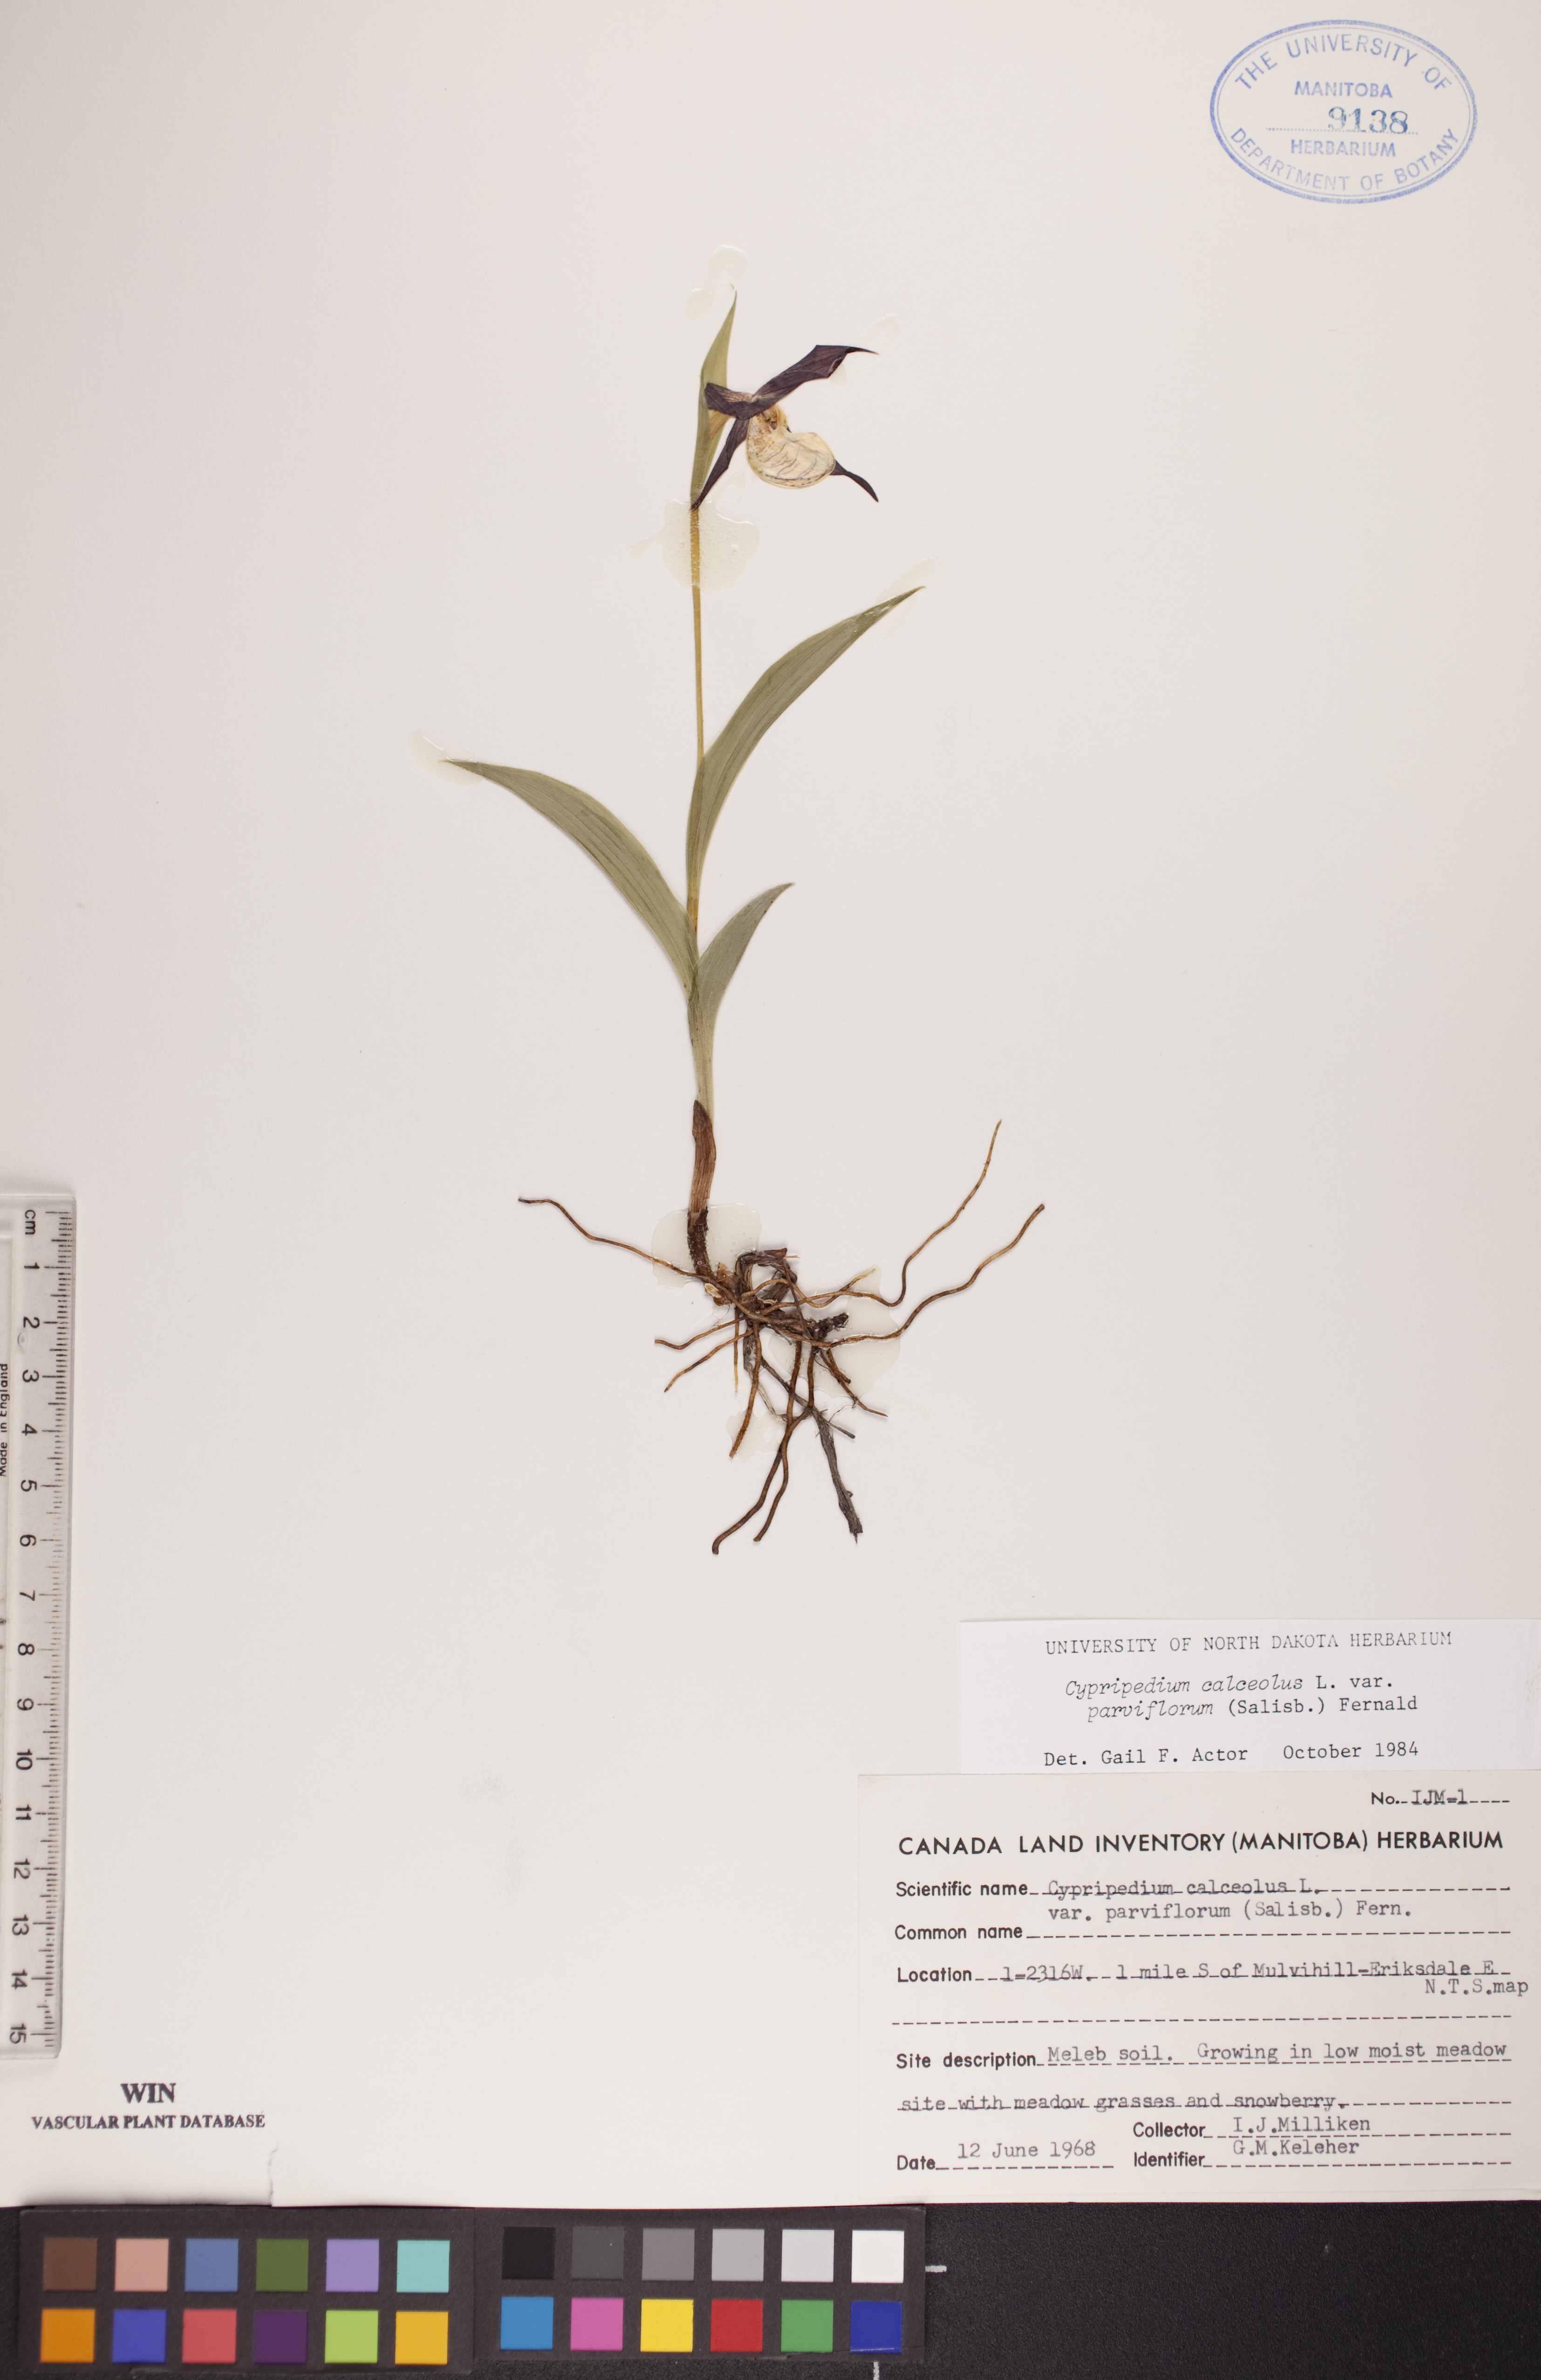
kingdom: Plantae
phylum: Tracheophyta
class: Liliopsida
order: Asparagales
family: Orchidaceae
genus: Cypripedium
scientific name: Cypripedium parviflorum
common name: American yellow lady's-slipper
